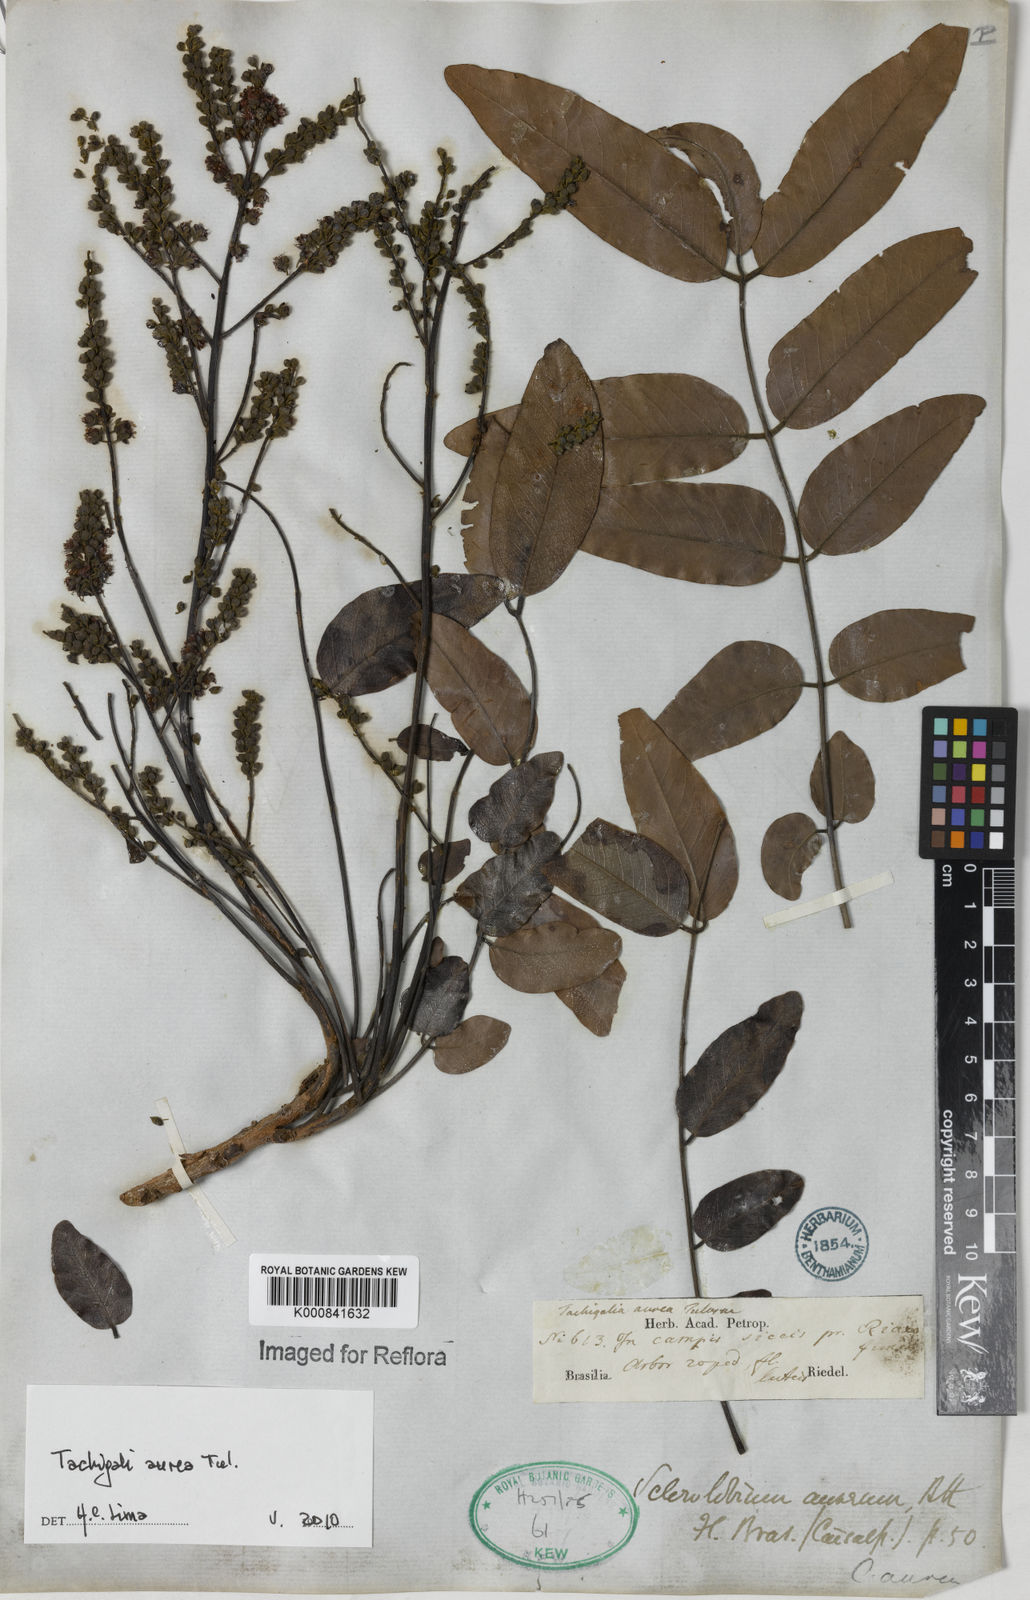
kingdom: Plantae
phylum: Tracheophyta
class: Magnoliopsida
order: Fabales
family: Fabaceae
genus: Tachigali
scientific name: Tachigali aurea
